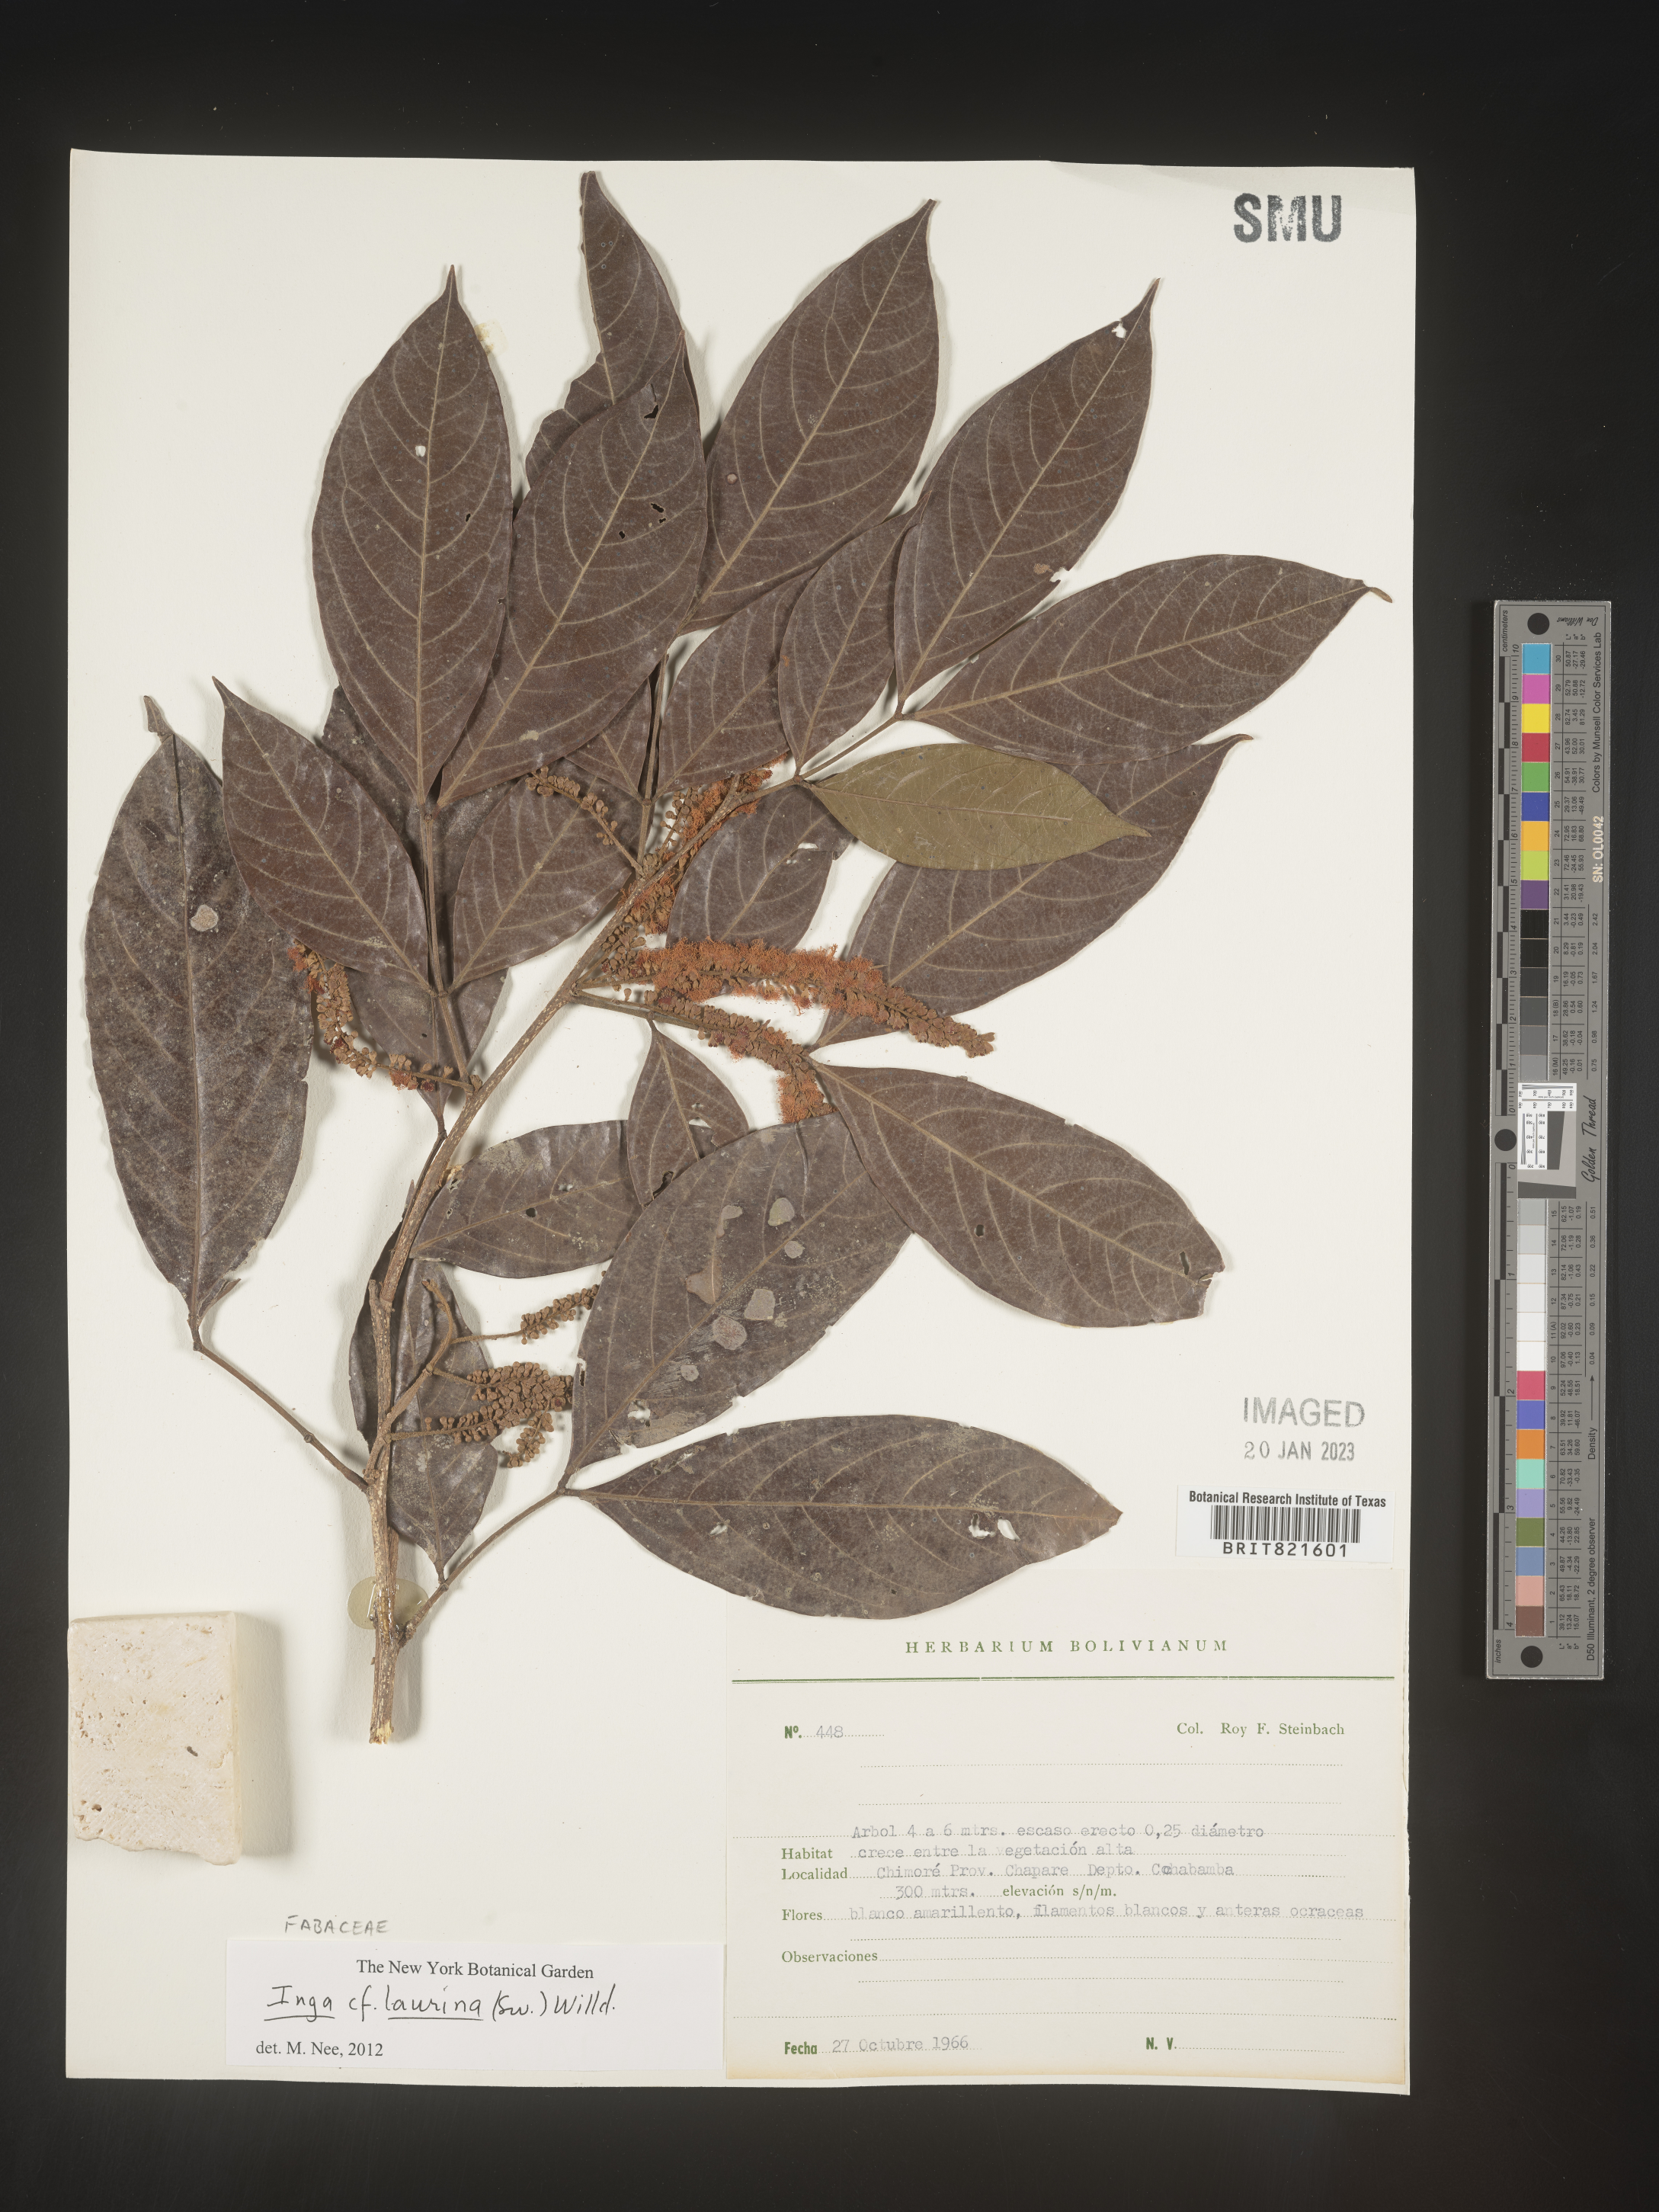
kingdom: Plantae
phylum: Tracheophyta
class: Magnoliopsida
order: Fabales
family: Fabaceae
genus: Inga
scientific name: Inga
